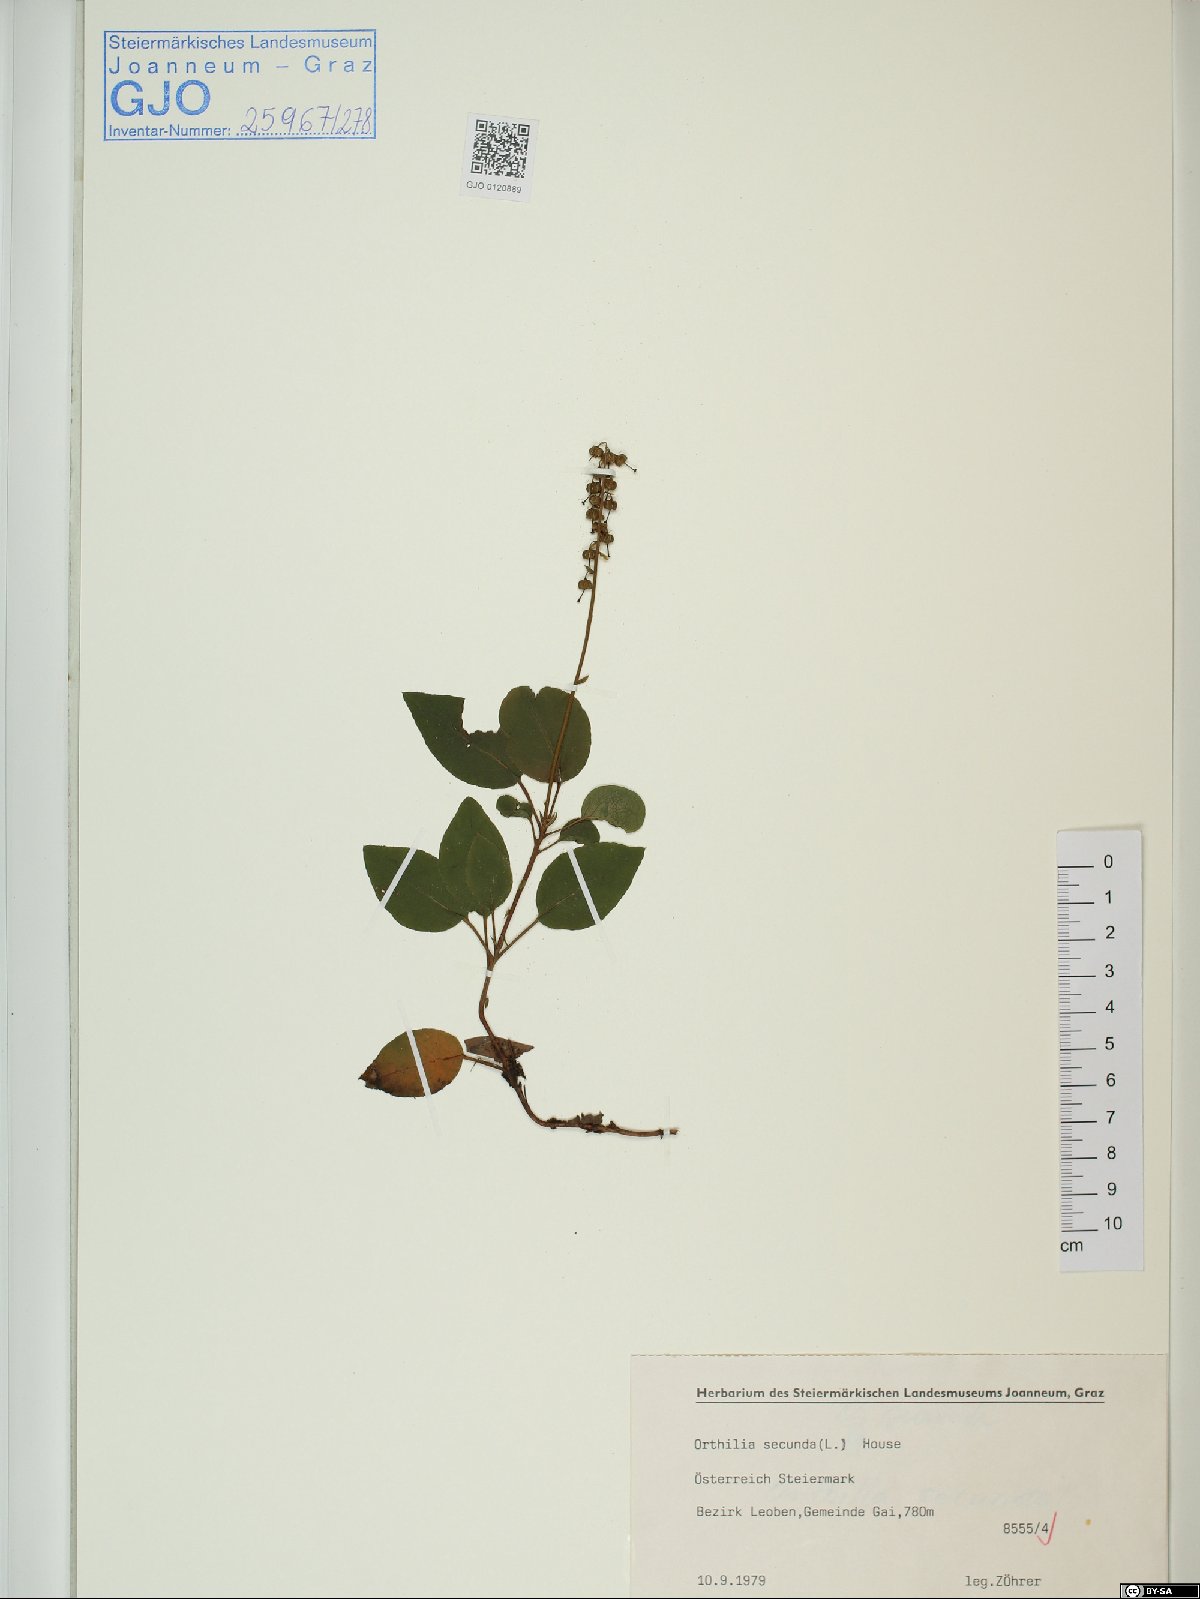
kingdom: Plantae
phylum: Tracheophyta
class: Magnoliopsida
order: Ericales
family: Ericaceae
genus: Orthilia
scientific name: Orthilia secunda
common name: One-sided orthilia
